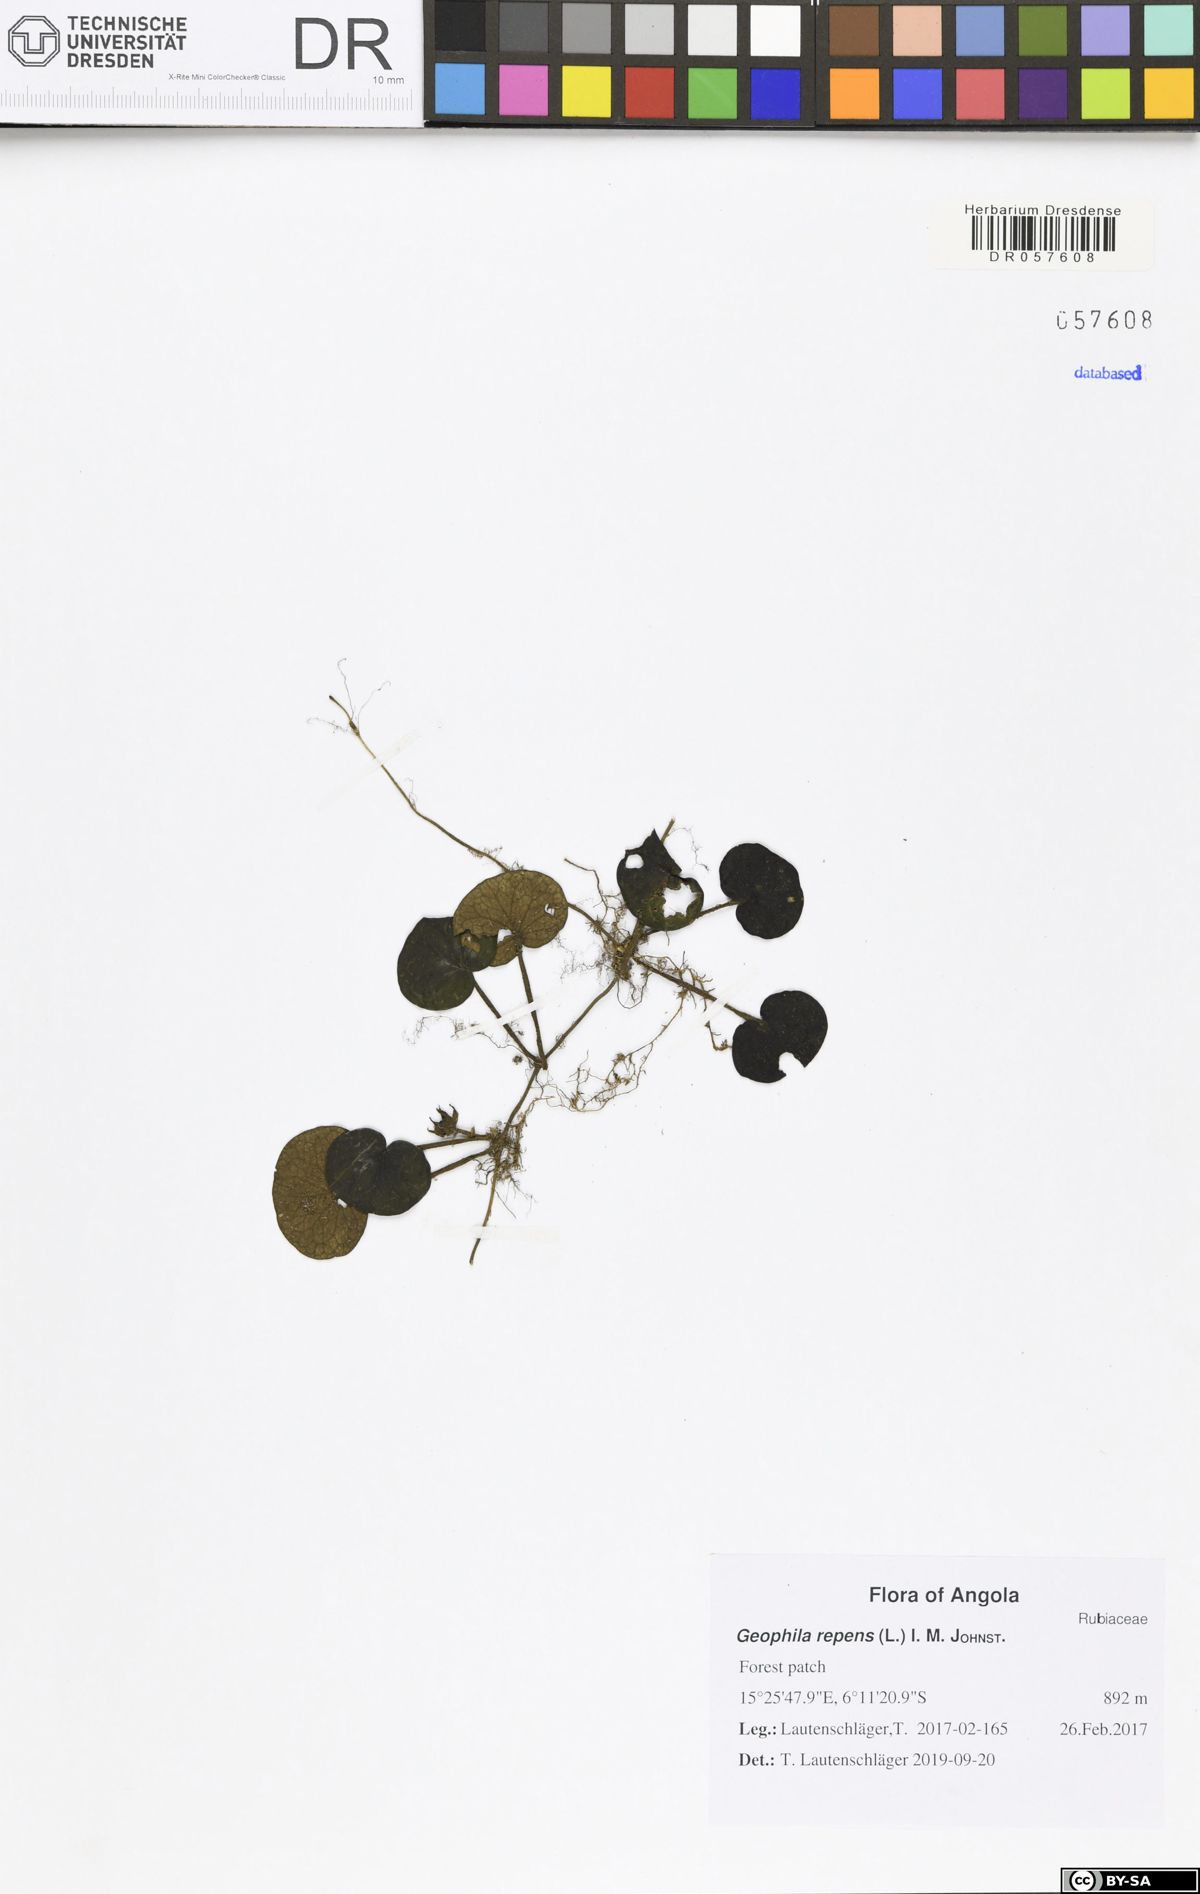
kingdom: Plantae
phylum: Tracheophyta
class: Magnoliopsida
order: Gentianales
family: Rubiaceae
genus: Geophila
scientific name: Geophila repens
